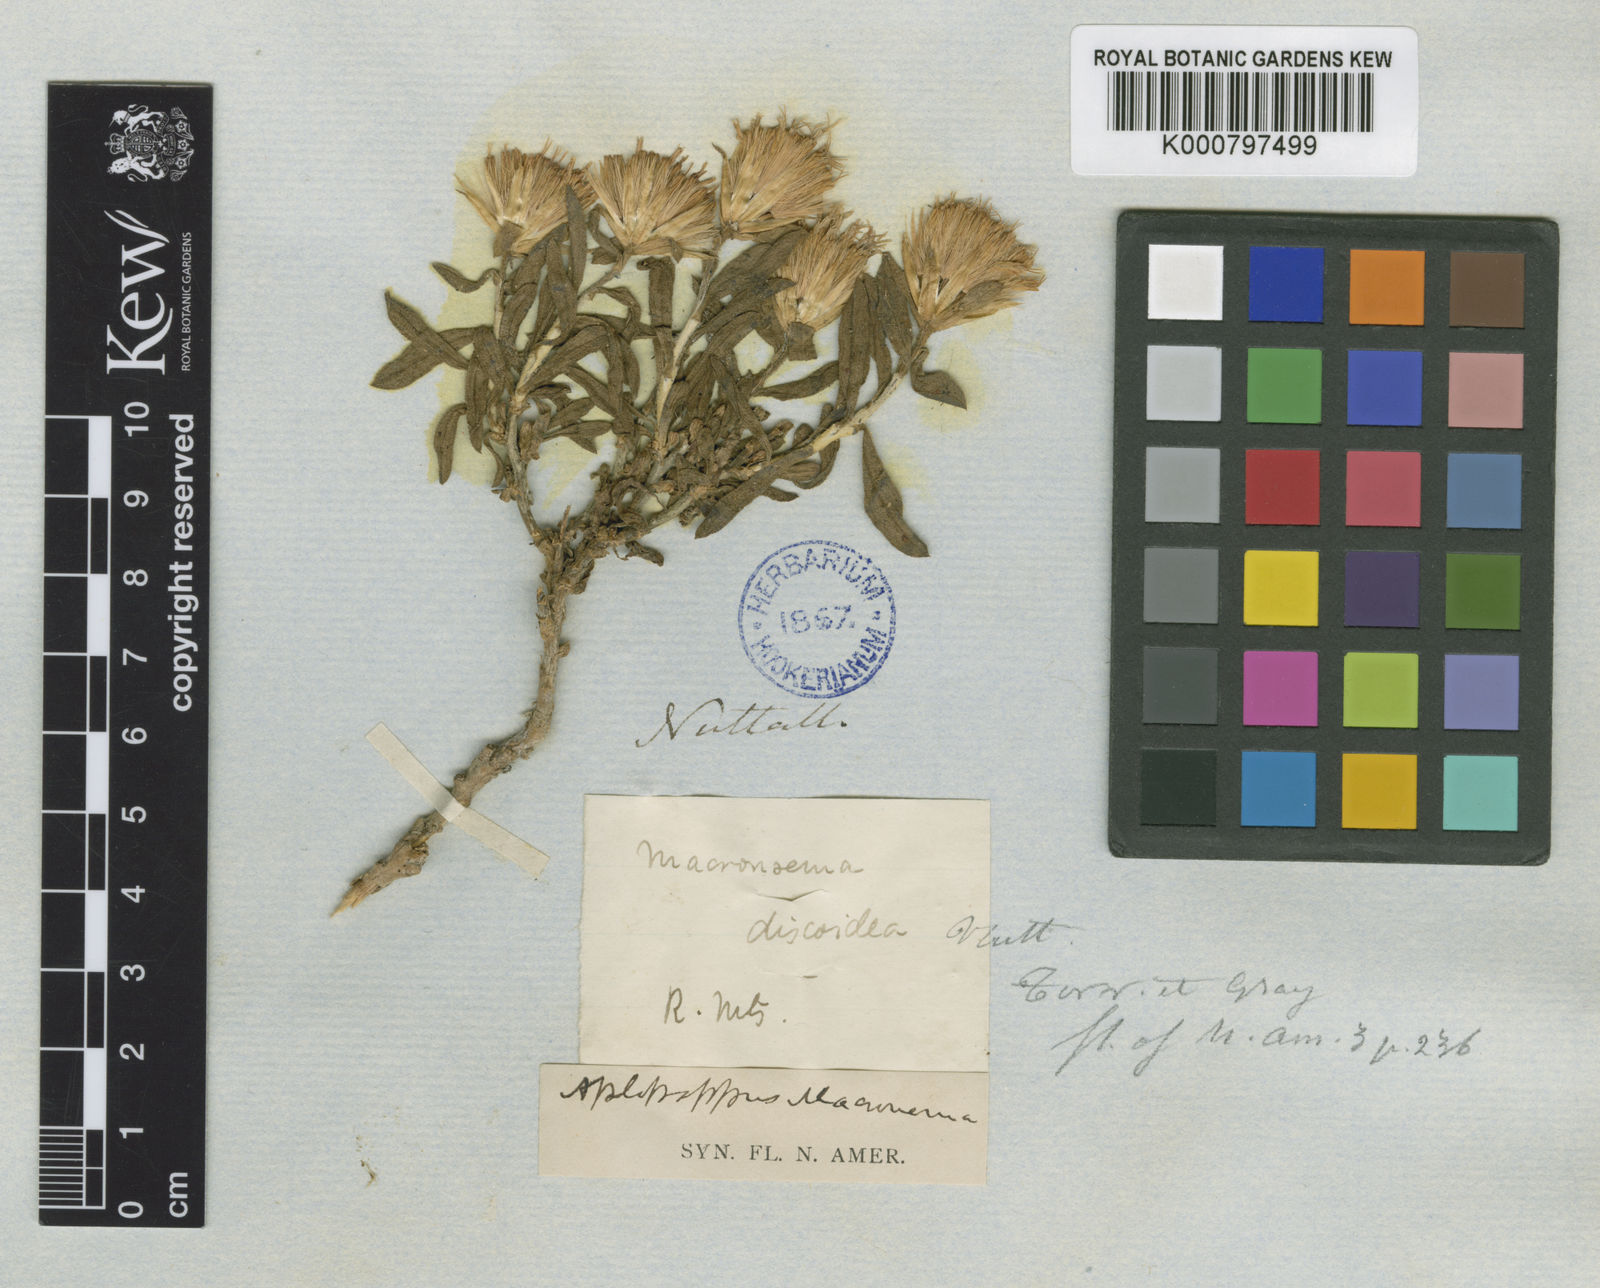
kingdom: Plantae
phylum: Tracheophyta
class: Magnoliopsida
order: Asterales
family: Asteraceae
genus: Ericameria
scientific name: Ericameria discoidea
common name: Sharp-scale goldenweed
